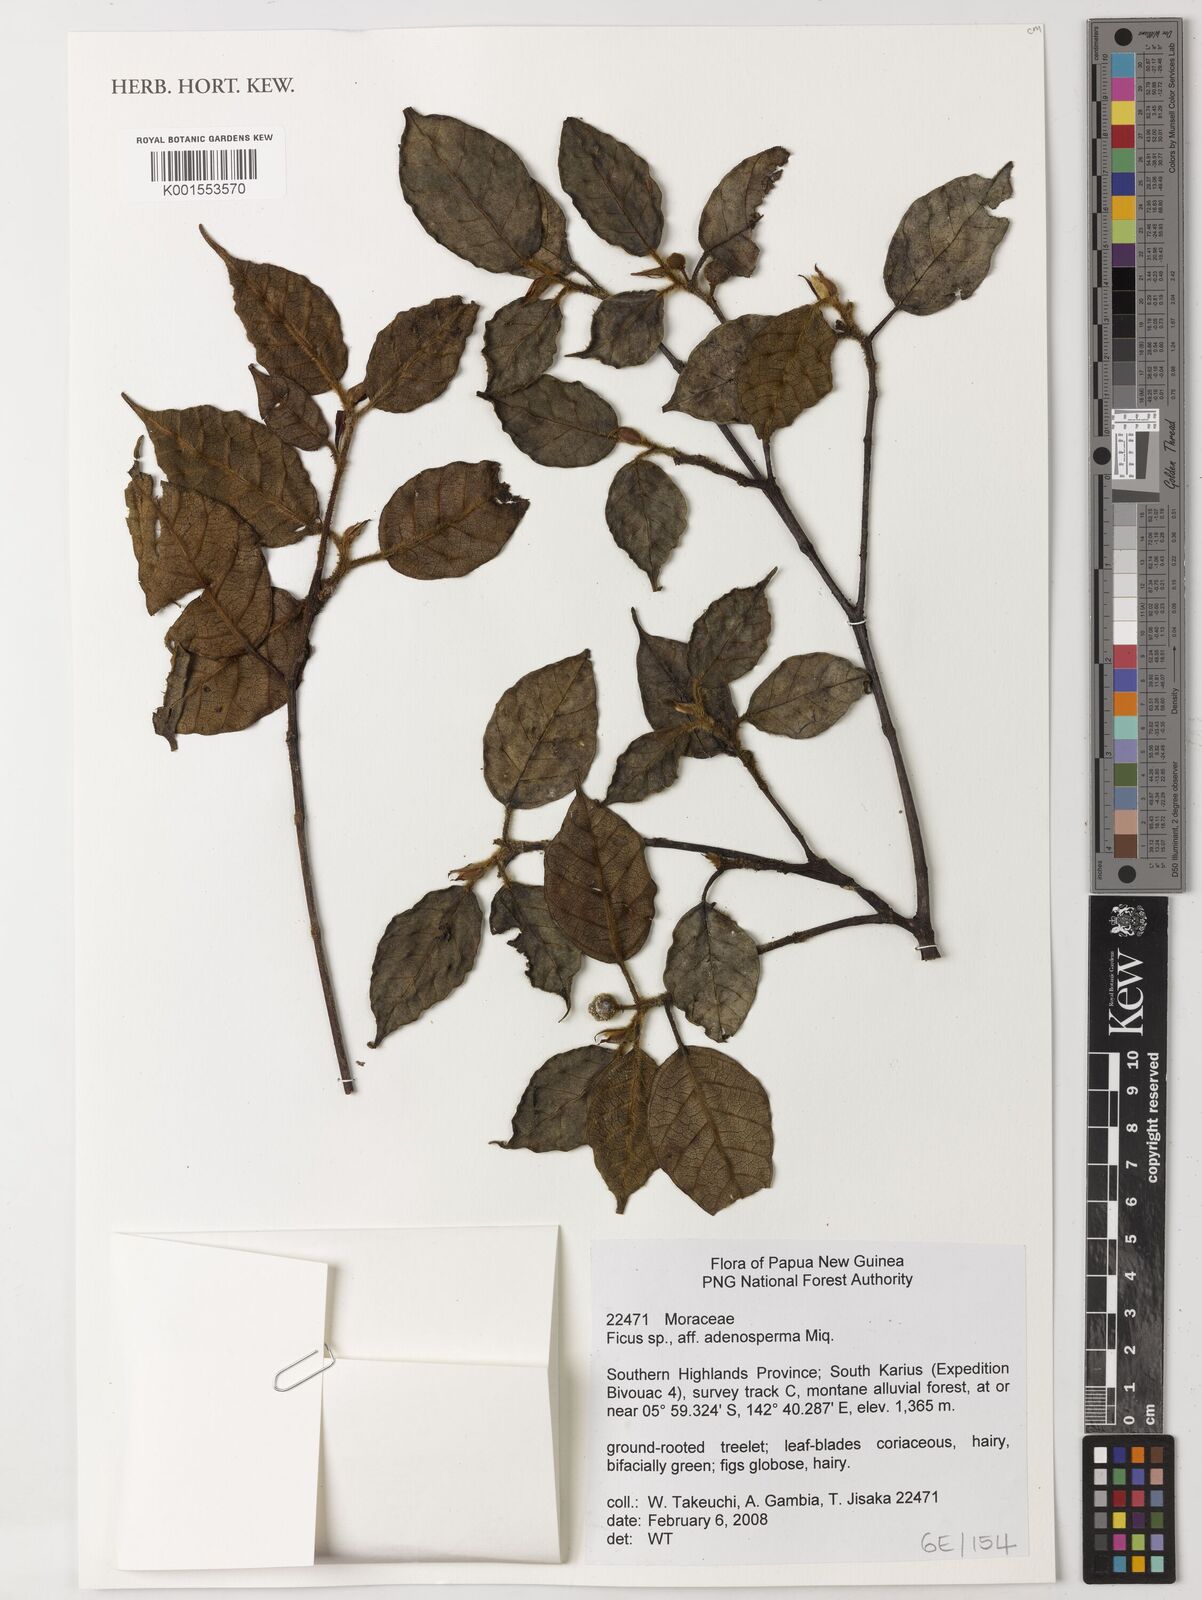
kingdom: Plantae
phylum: Tracheophyta
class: Magnoliopsida
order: Rosales
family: Moraceae
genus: Ficus
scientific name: Ficus adenosperma
